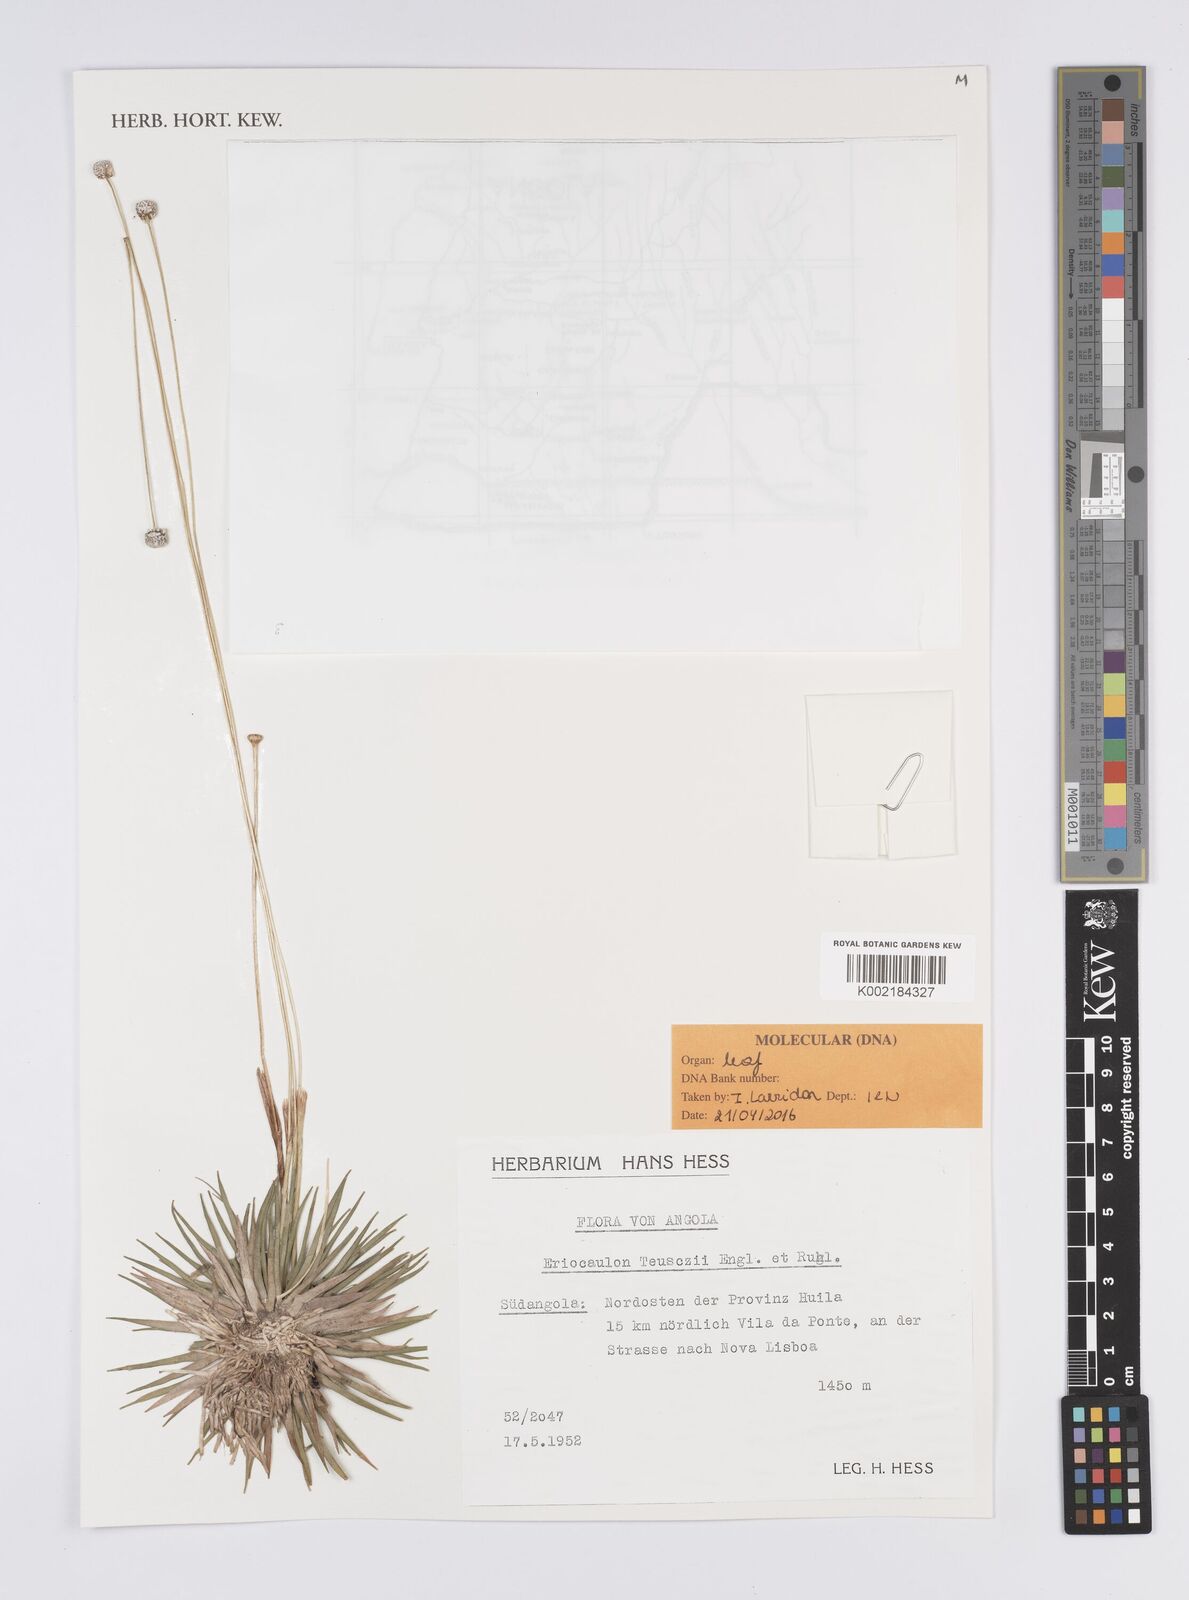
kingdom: Plantae
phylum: Tracheophyta
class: Liliopsida
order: Poales
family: Eriocaulaceae
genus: Eriocaulon
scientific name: Eriocaulon teusczii
